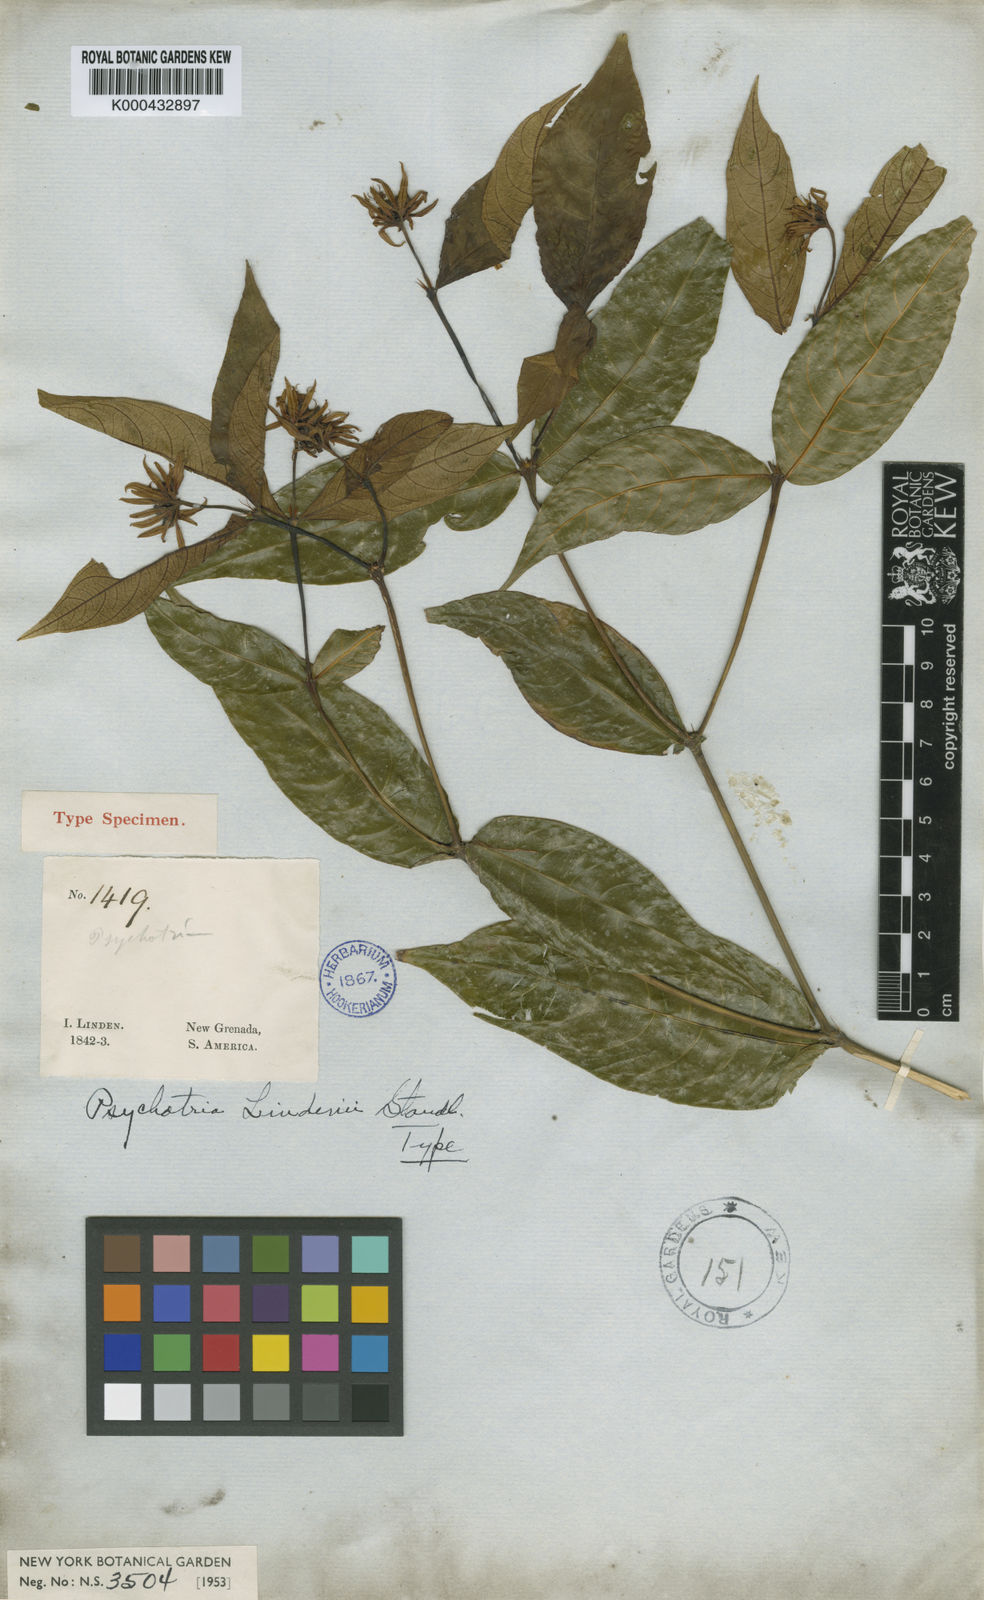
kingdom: Plantae
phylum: Tracheophyta
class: Magnoliopsida
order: Gentianales
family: Rubiaceae
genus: Palicourea
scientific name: Palicourea raveniana
